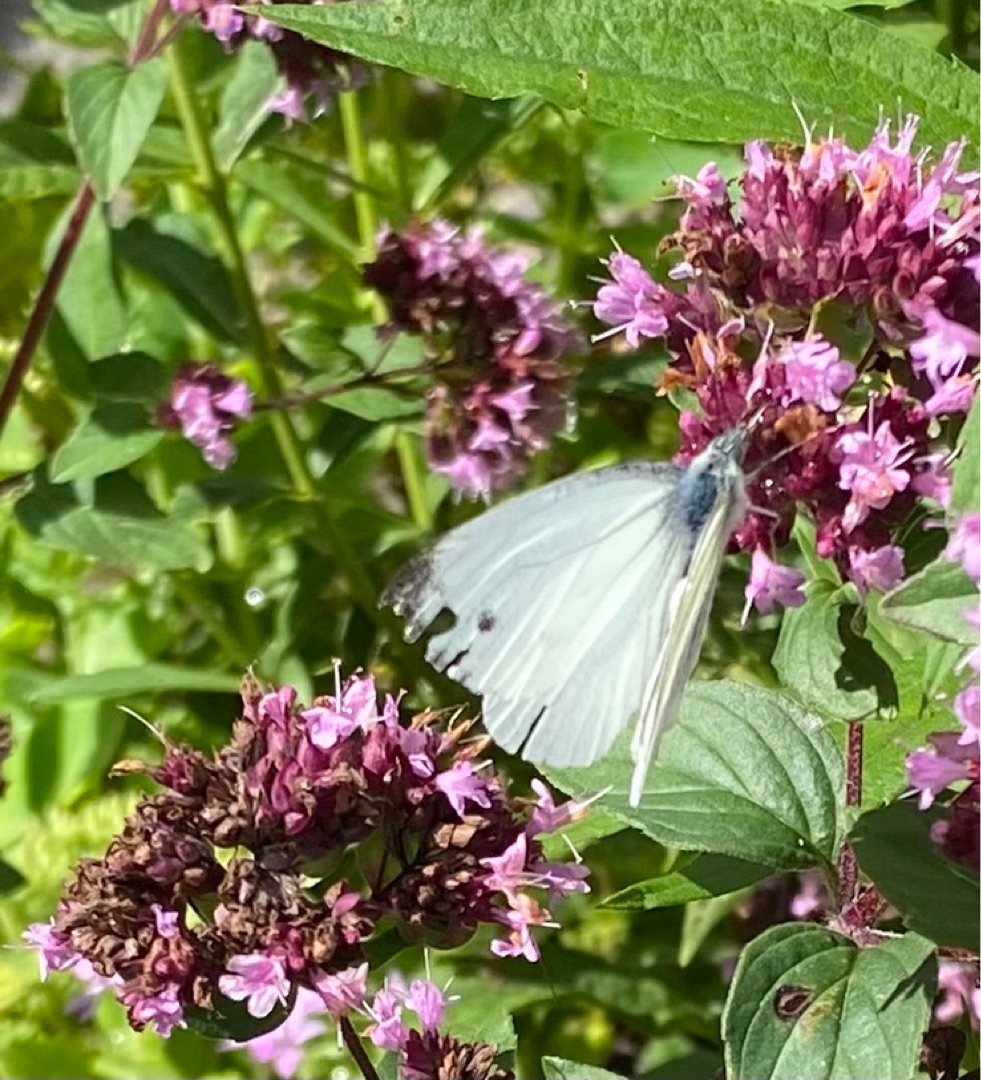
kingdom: Animalia
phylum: Arthropoda
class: Insecta
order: Lepidoptera
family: Pieridae
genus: Pieris
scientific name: Pieris napi
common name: Grønåret kålsommerfugl
